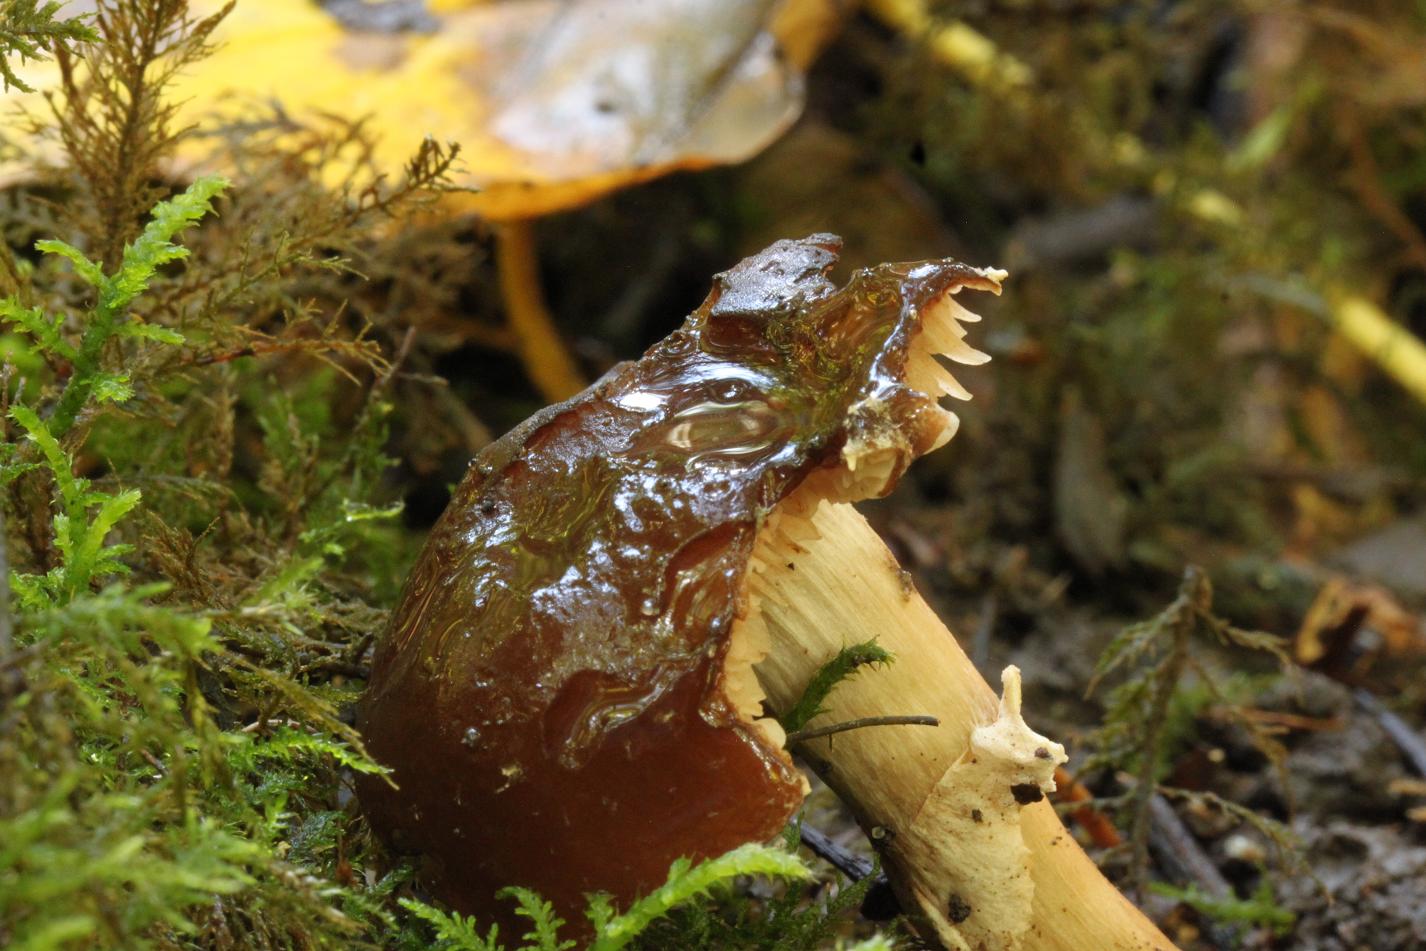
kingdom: Fungi
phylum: Basidiomycota
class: Agaricomycetes
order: Agaricales
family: Tubariaceae
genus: Cyclocybe
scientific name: Cyclocybe erebia
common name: mørk agerhat
